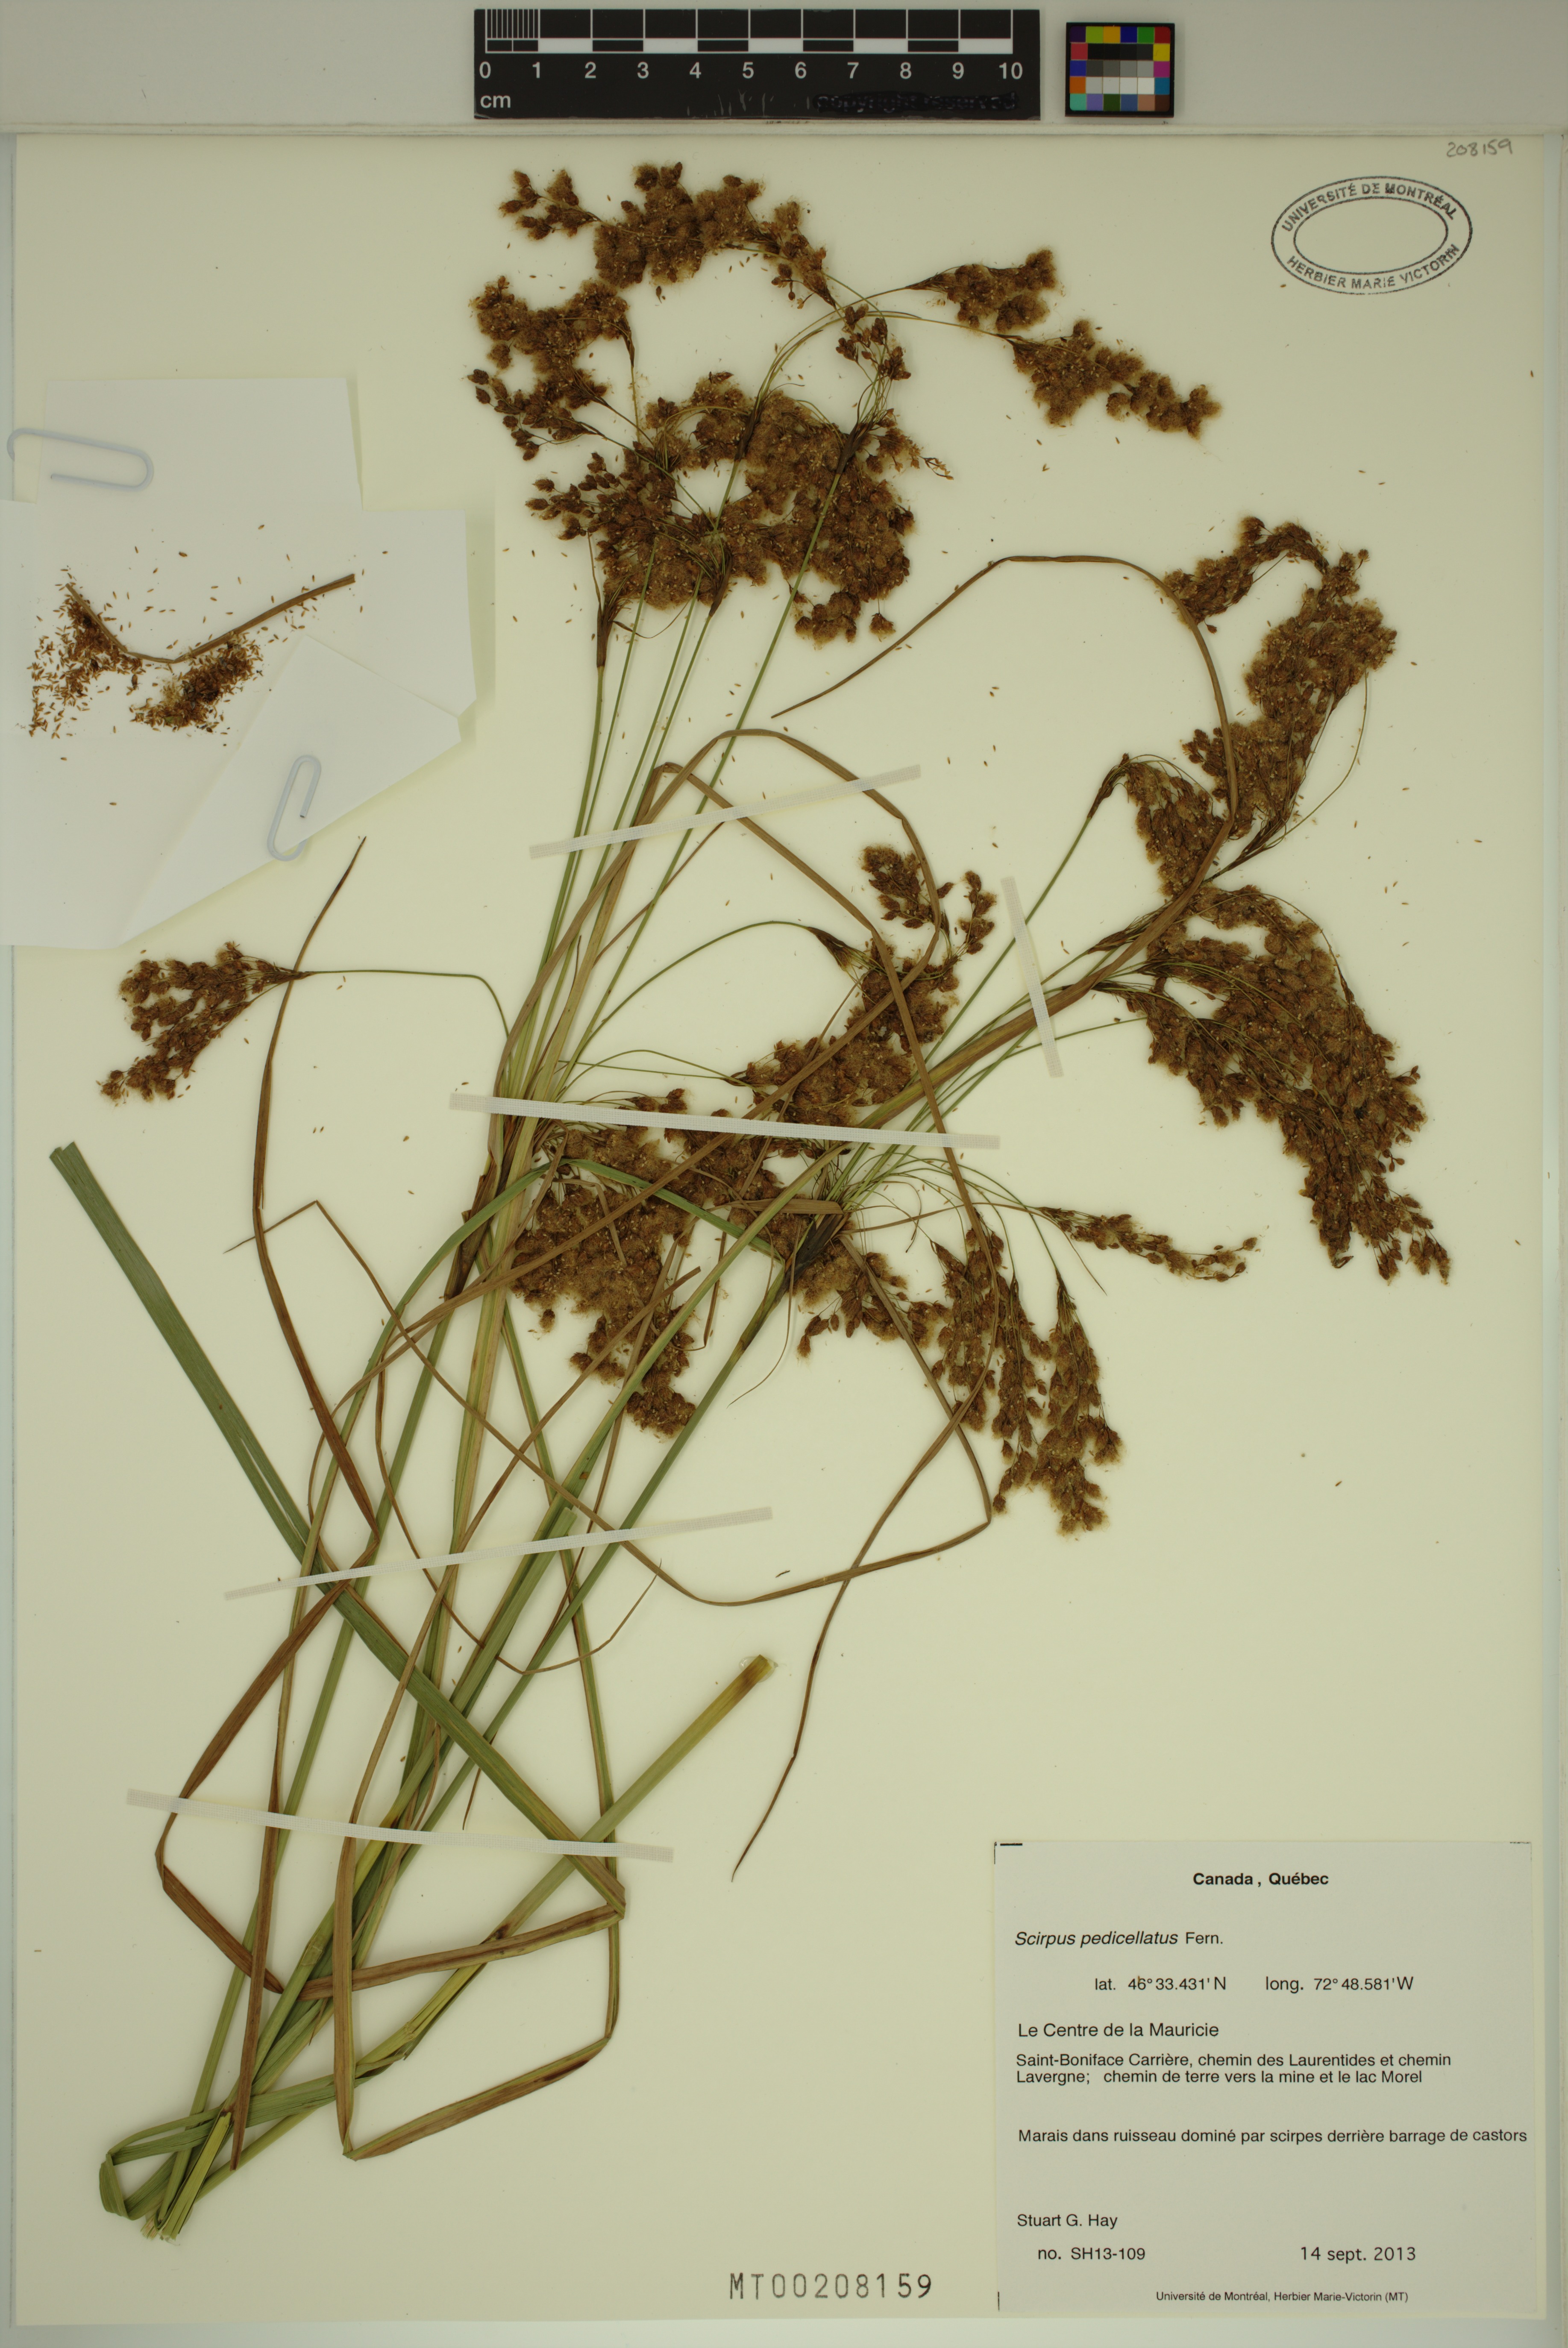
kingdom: Plantae
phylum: Tracheophyta
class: Liliopsida
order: Poales
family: Cyperaceae
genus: Scirpus
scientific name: Scirpus pedicellatus
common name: Pedicelled bulrush
